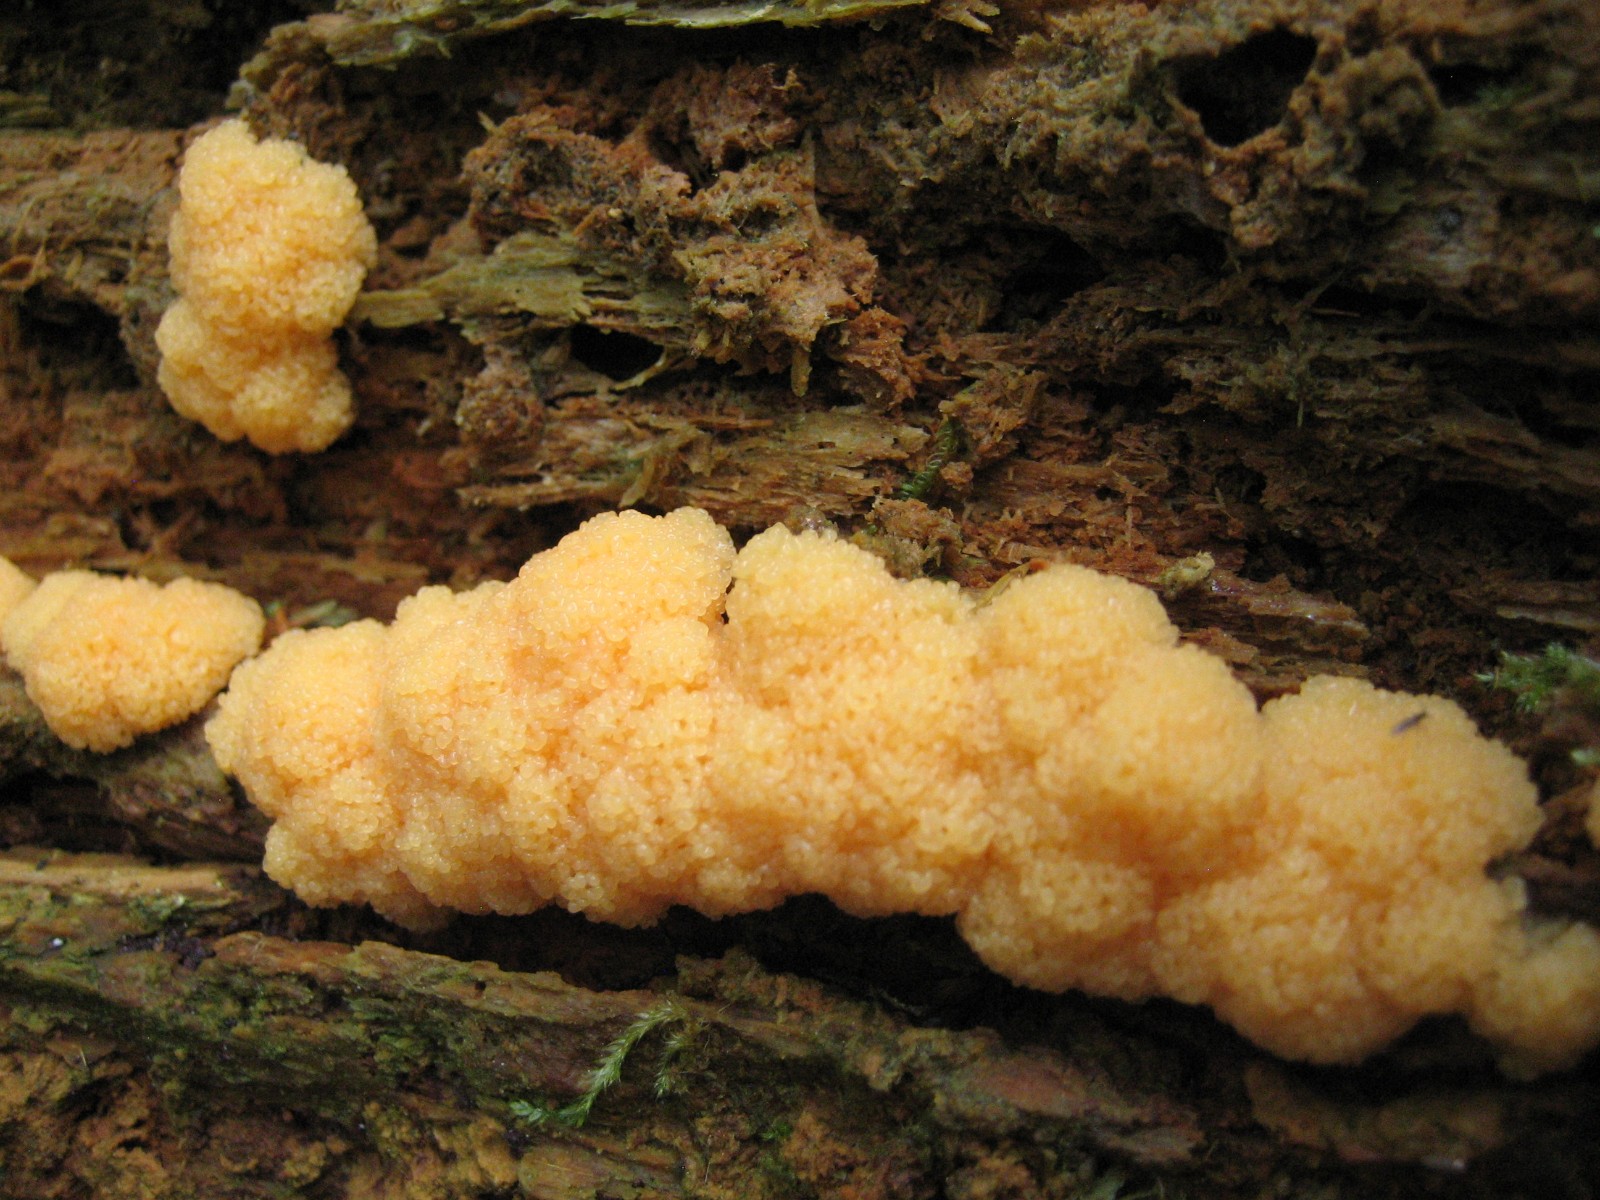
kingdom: Protozoa
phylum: Mycetozoa
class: Myxomycetes
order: Cribrariales
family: Tubiferaceae
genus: Tubifera
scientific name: Tubifera ferruginosa
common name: kanel-støvrør
